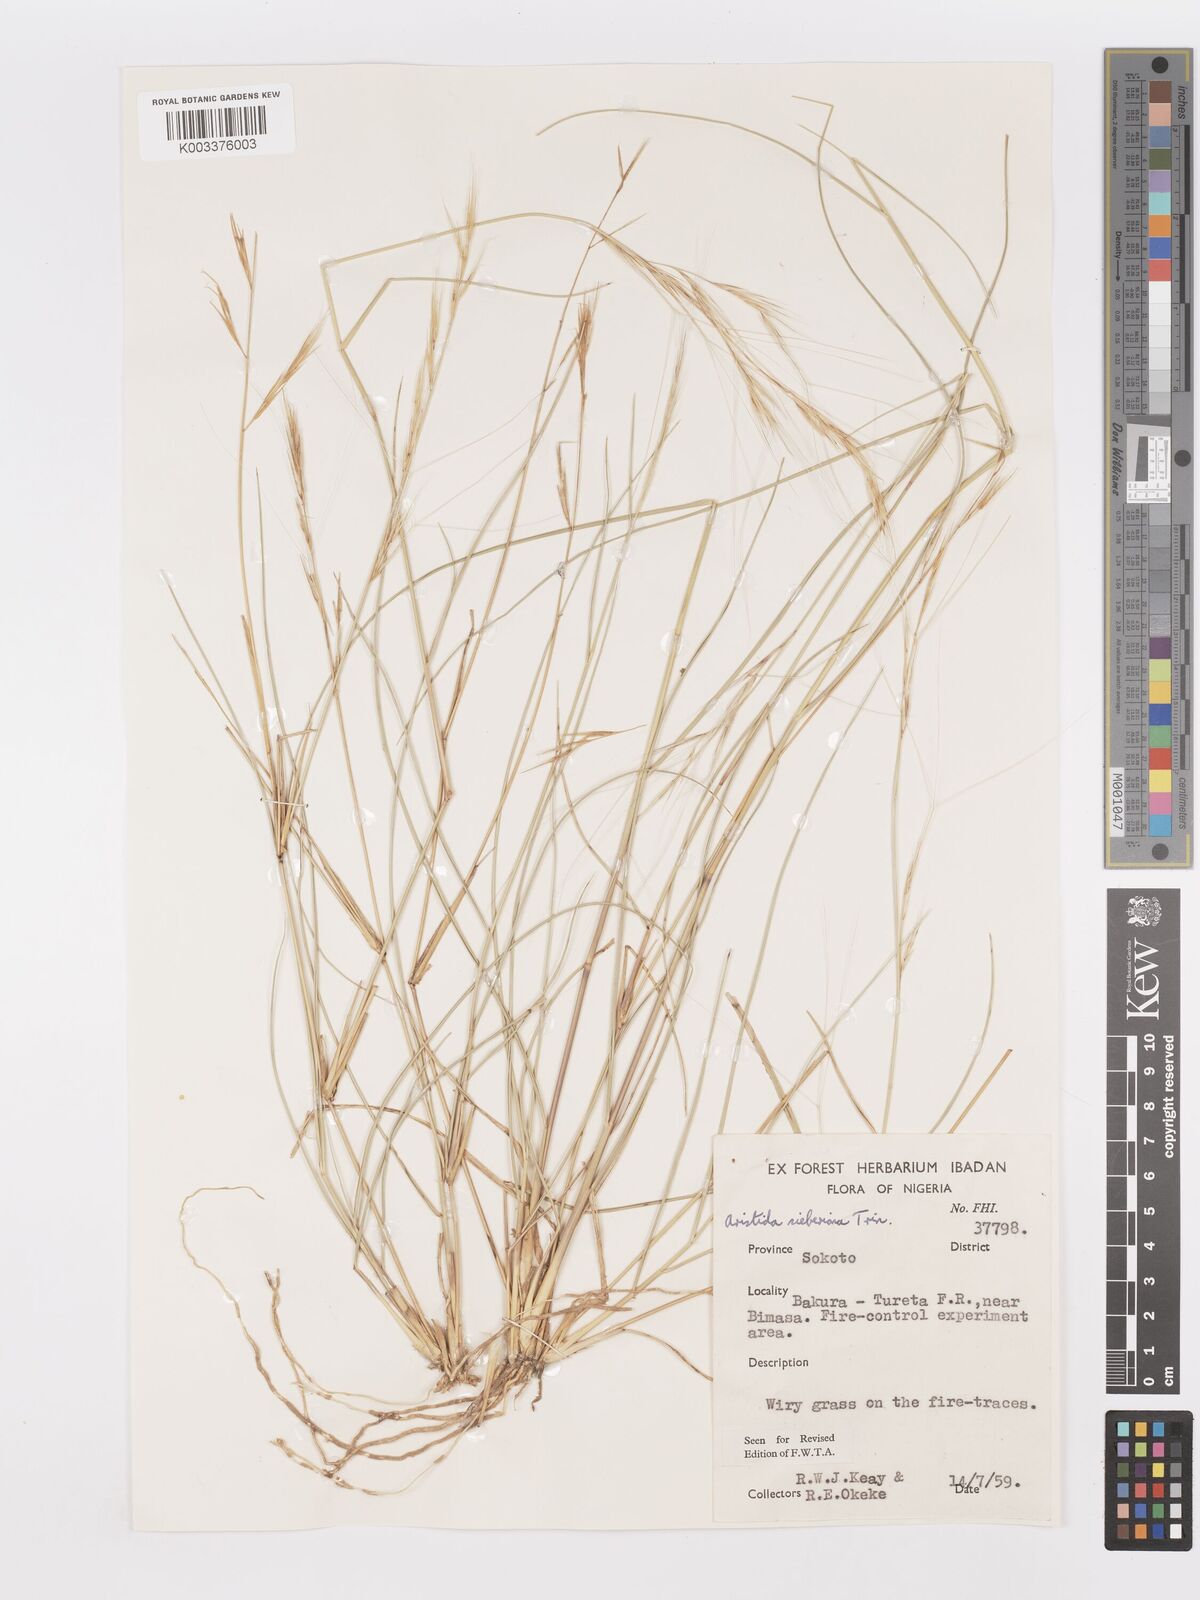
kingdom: Plantae
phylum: Tracheophyta
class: Liliopsida
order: Poales
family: Poaceae
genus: Aristida
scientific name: Aristida sieberiana
